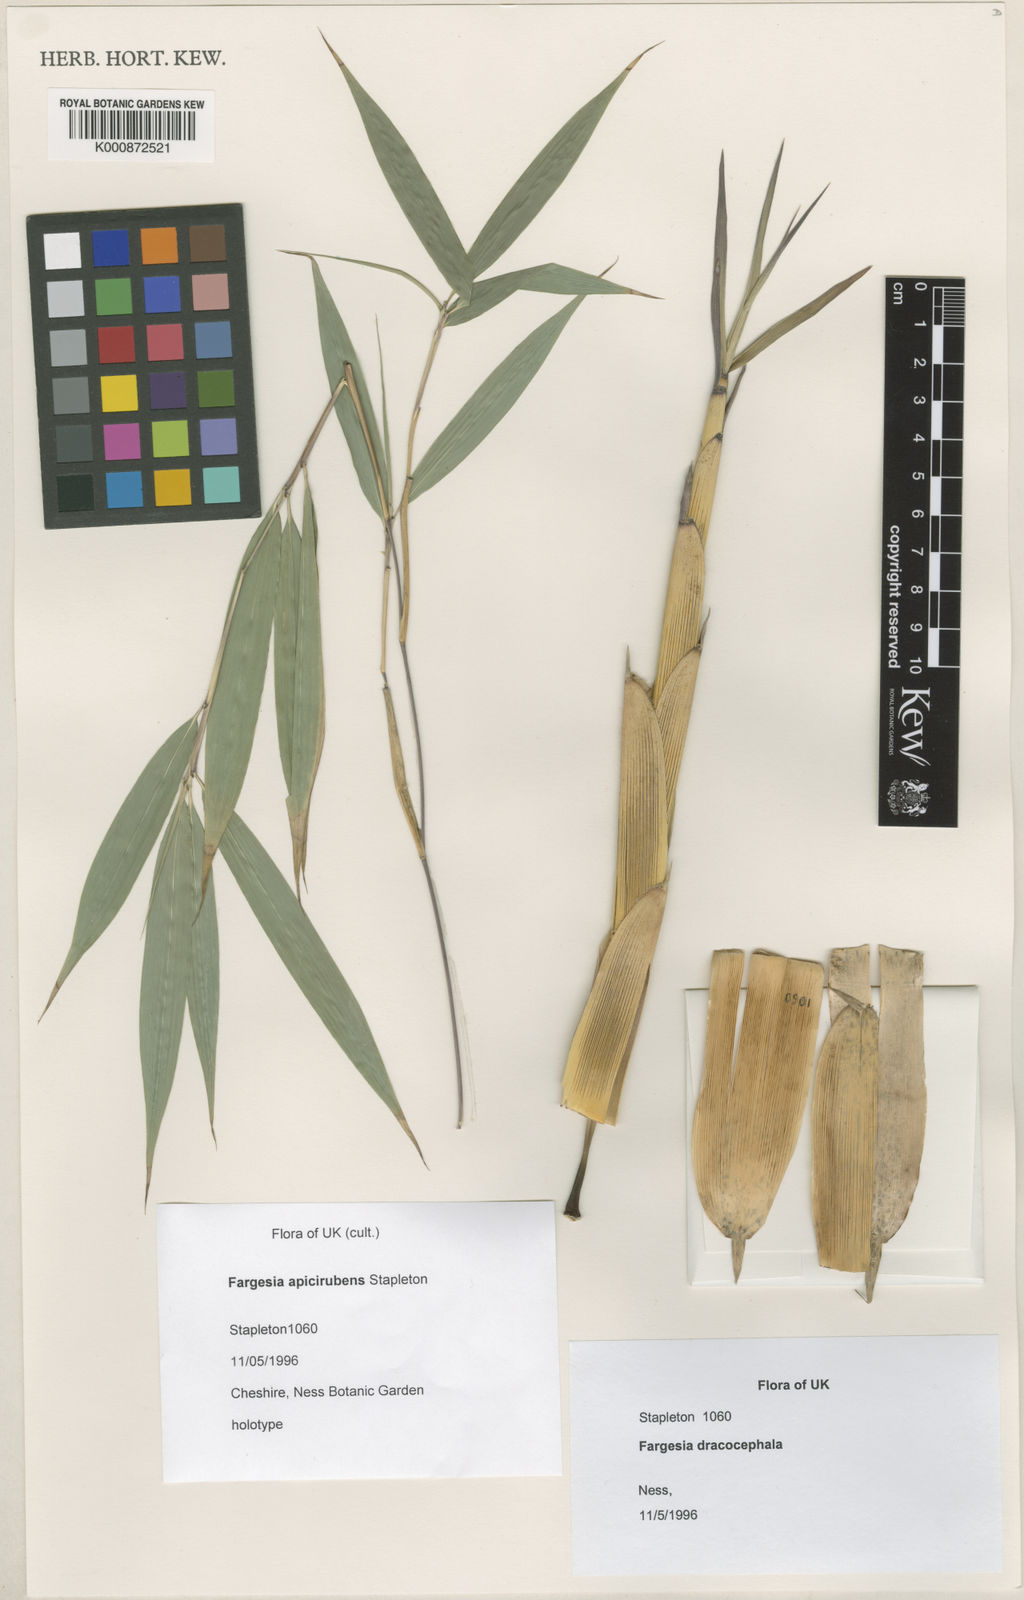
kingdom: Plantae
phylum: Tracheophyta
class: Liliopsida
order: Poales
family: Poaceae
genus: Fargesia
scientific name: Fargesia apicirubens
